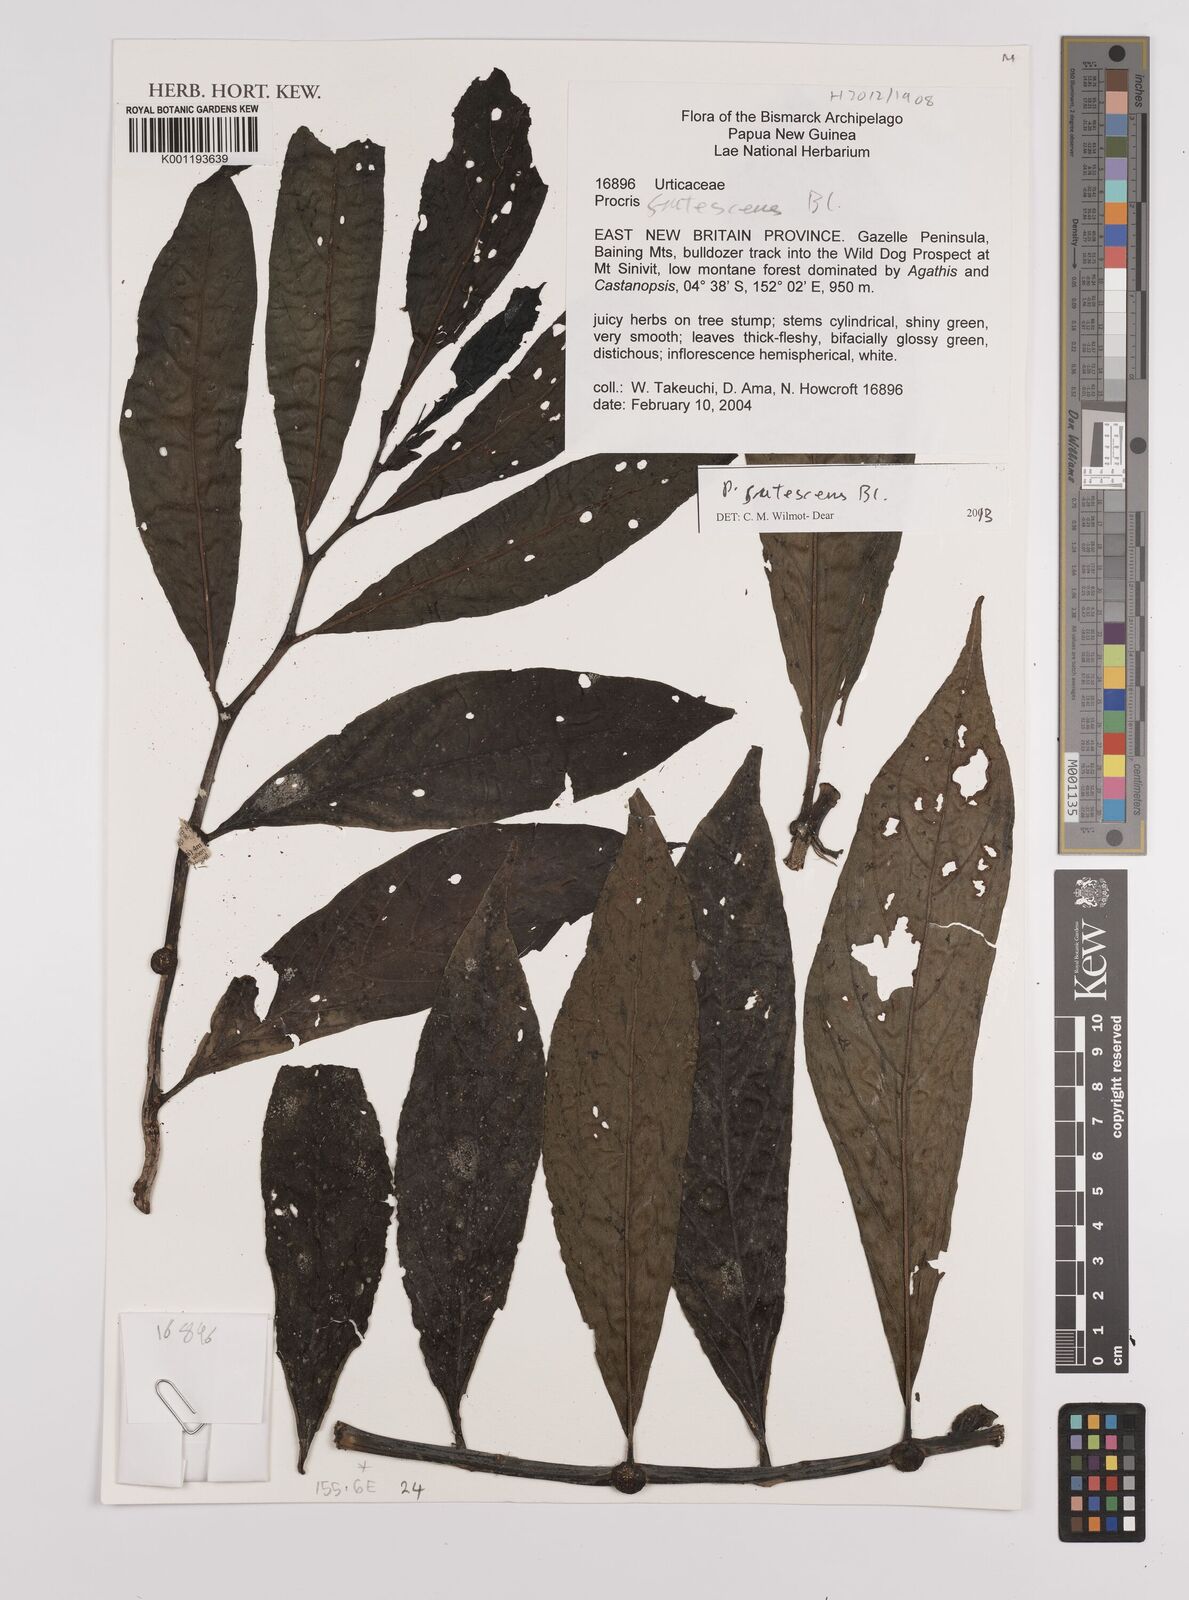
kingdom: Plantae
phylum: Tracheophyta
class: Magnoliopsida
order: Rosales
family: Urticaceae
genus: Procris
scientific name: Procris frutescens
